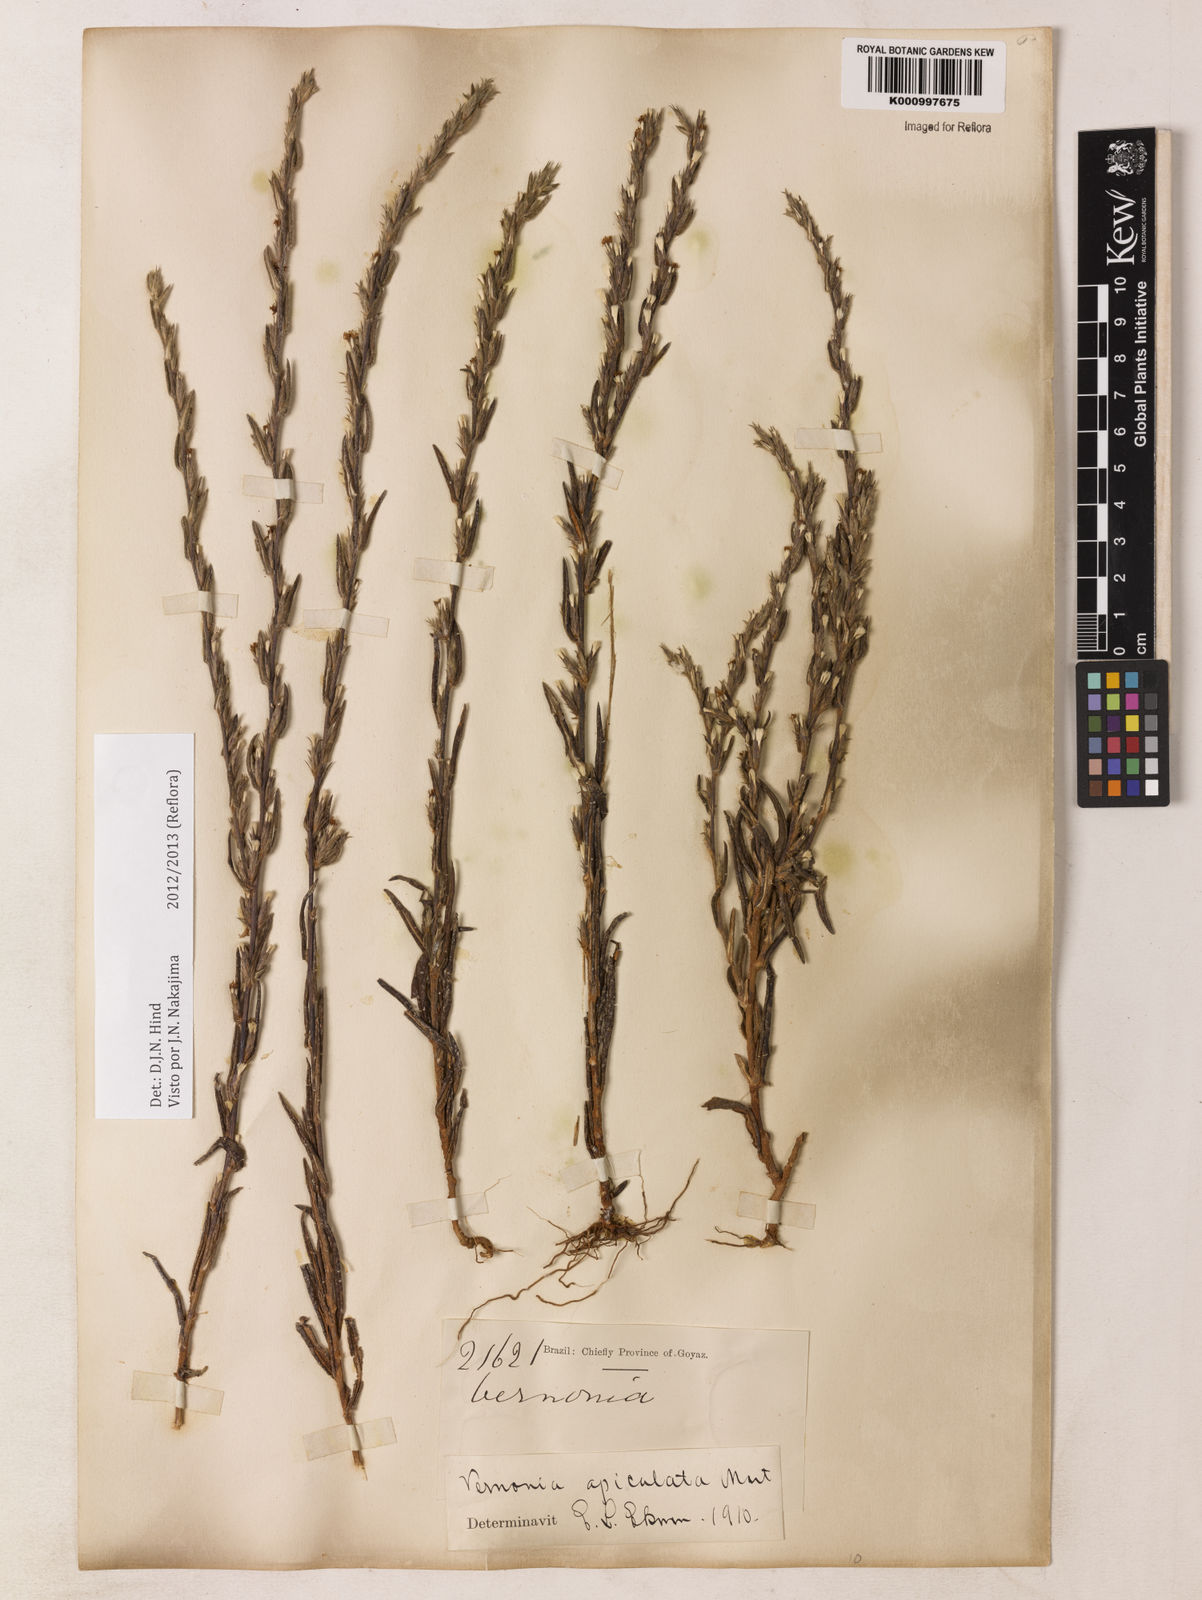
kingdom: Plantae
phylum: Tracheophyta
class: Magnoliopsida
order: Asterales
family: Asteraceae
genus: Stenocephalum
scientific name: Stenocephalum apiculatum
